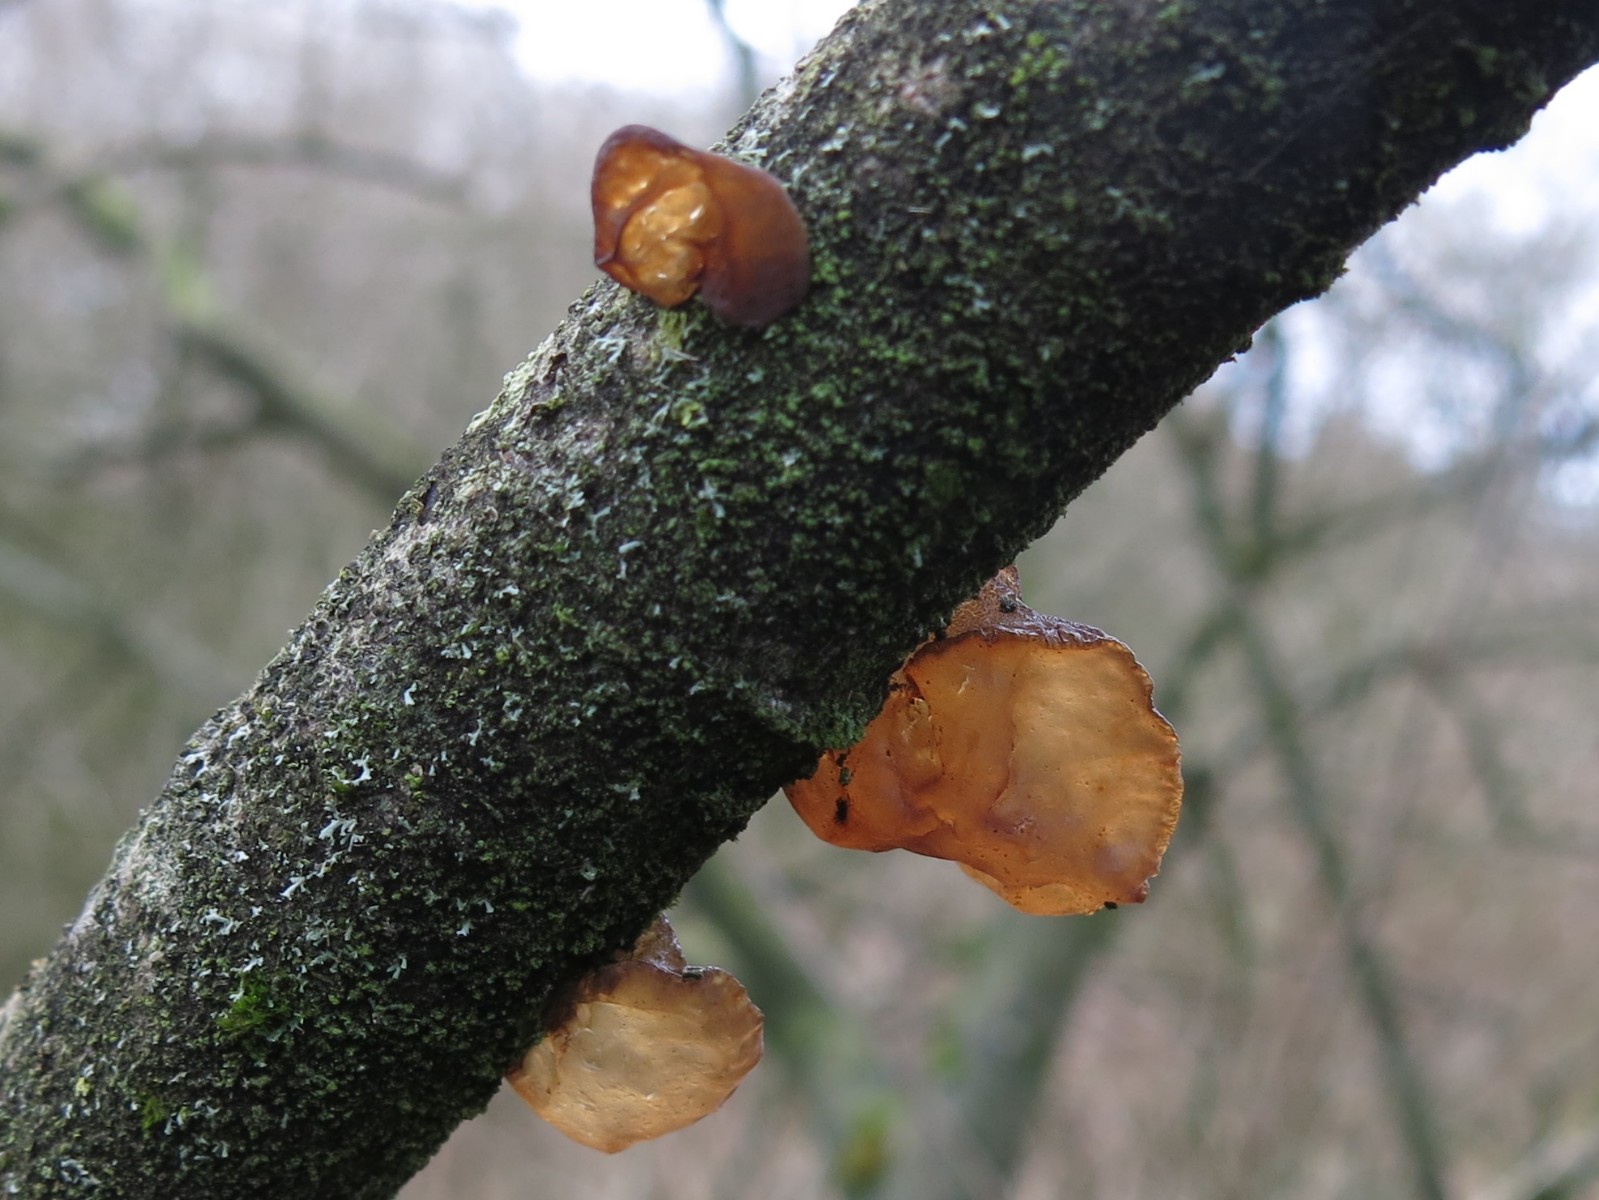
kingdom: Fungi
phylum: Basidiomycota
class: Agaricomycetes
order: Auriculariales
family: Auriculariaceae
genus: Exidia
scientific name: Exidia recisa
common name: pile-bævretop
